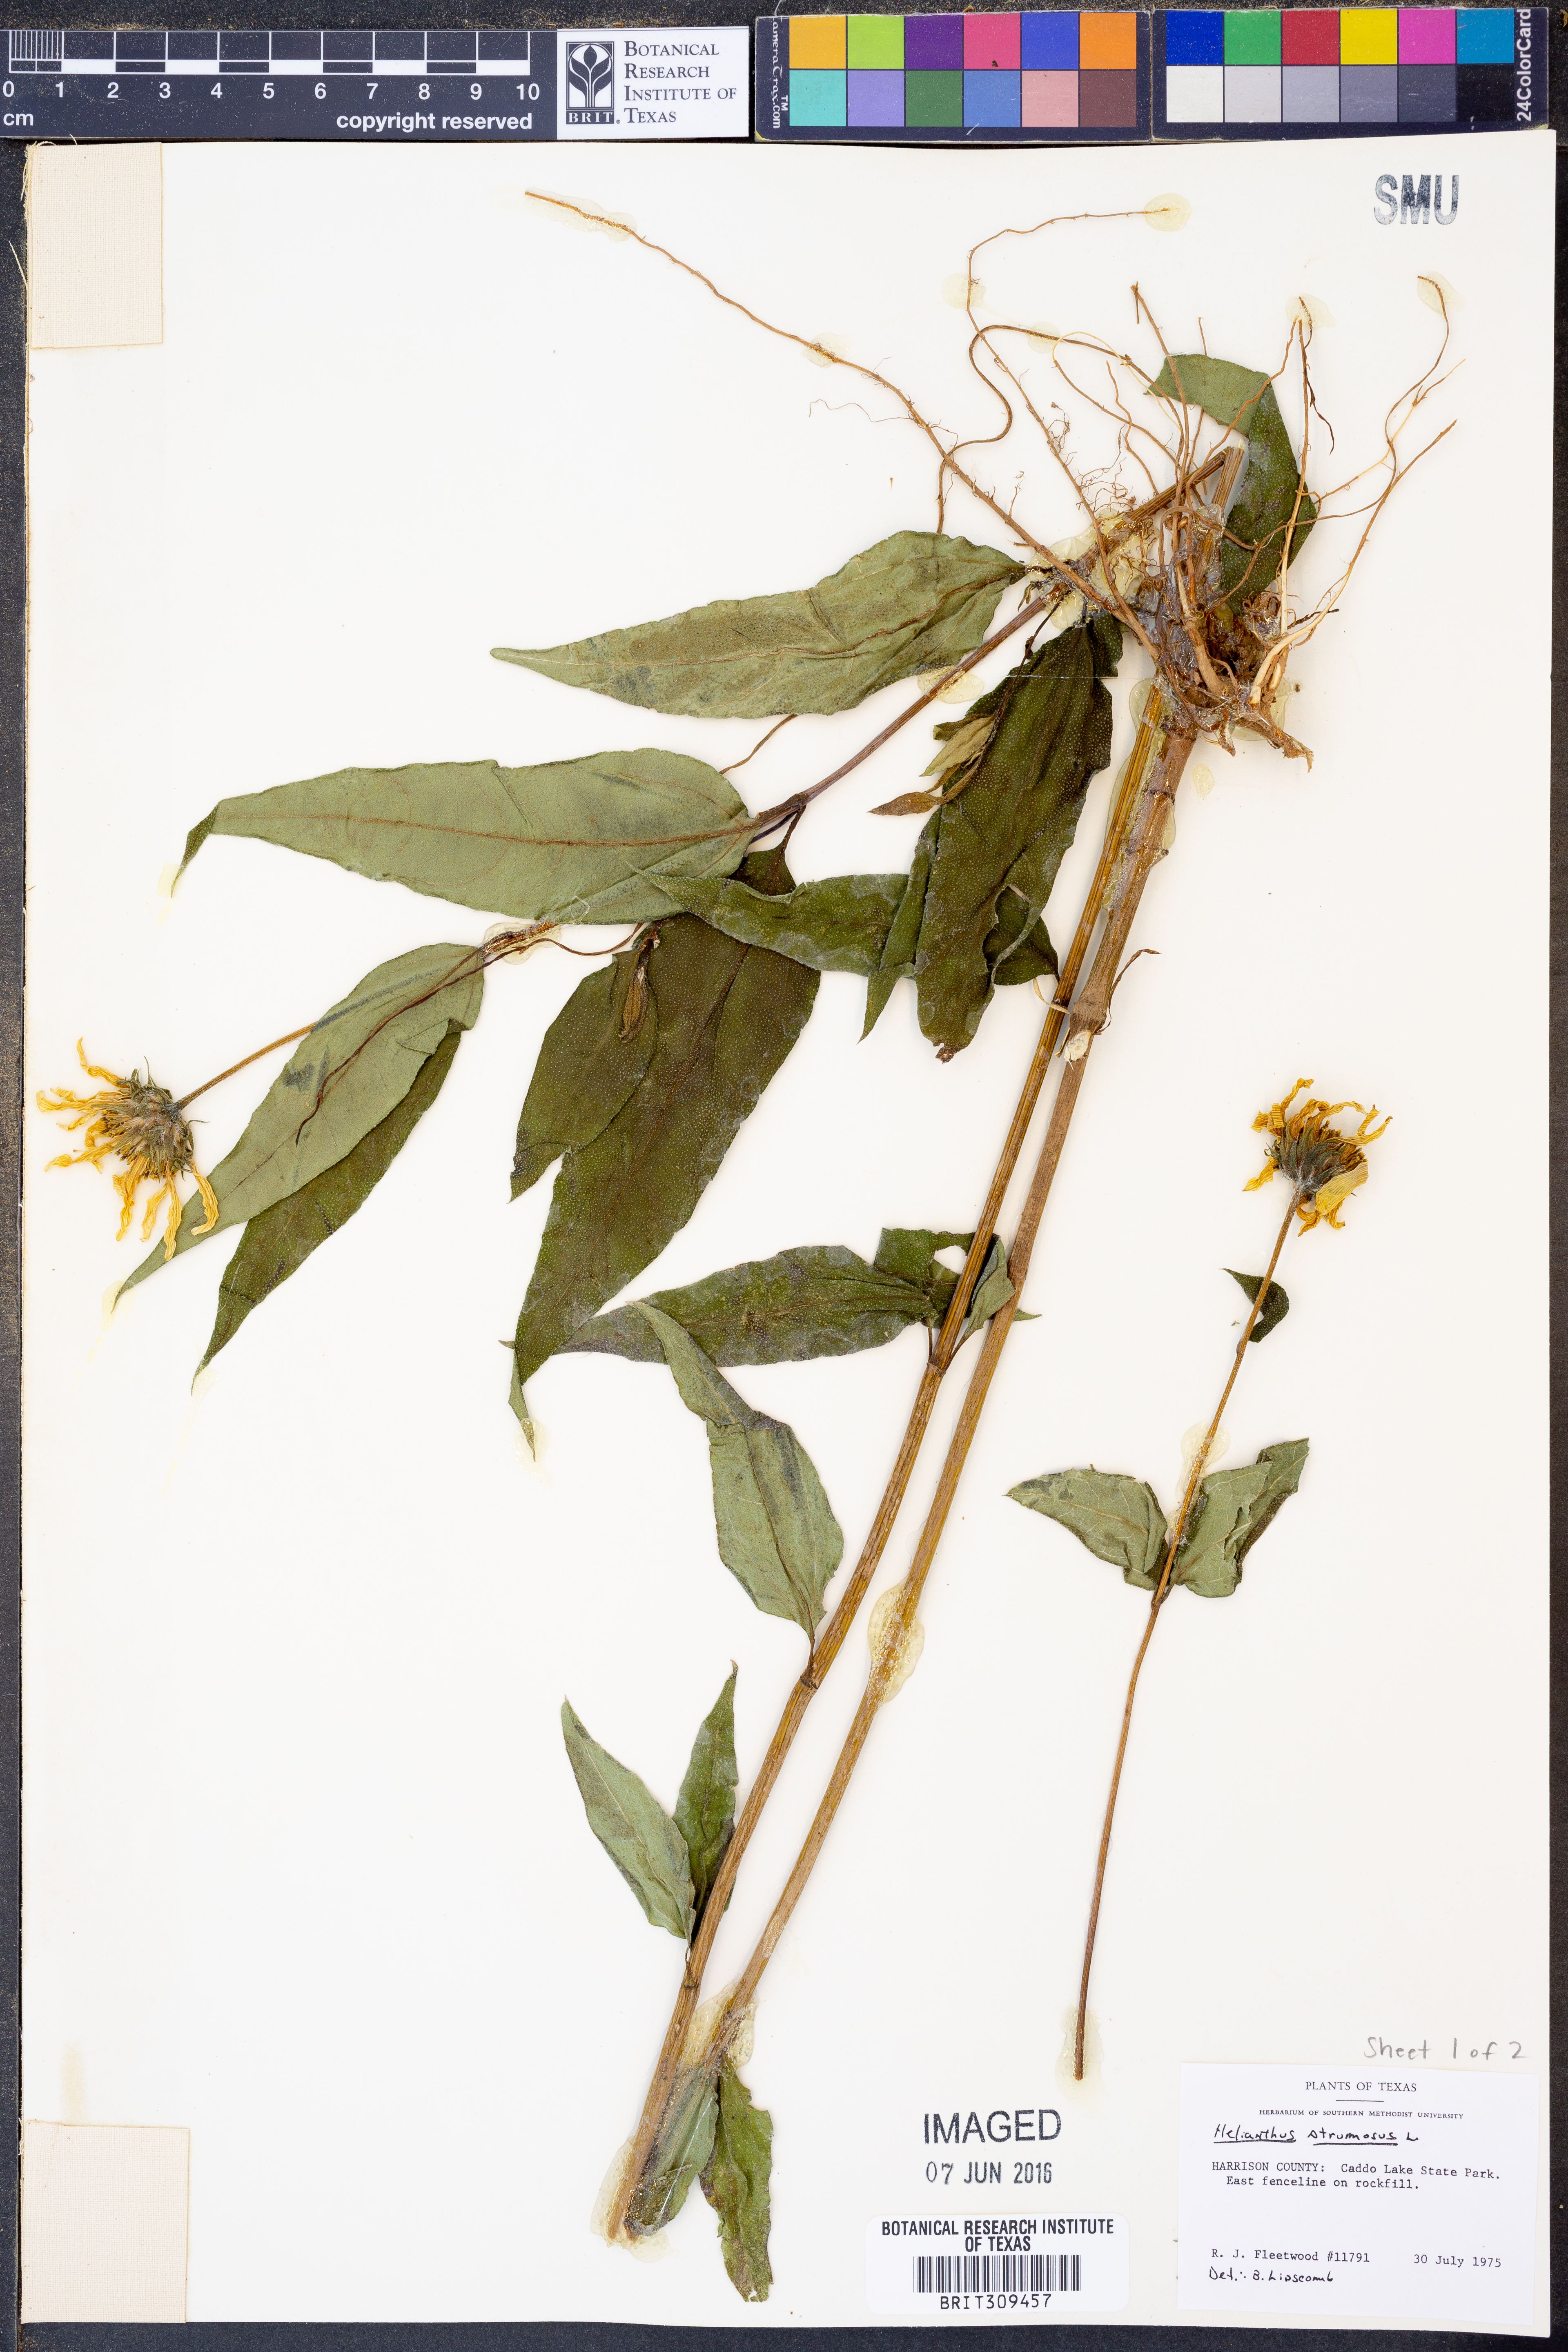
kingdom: Plantae
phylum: Tracheophyta
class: Magnoliopsida
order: Asterales
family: Asteraceae
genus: Helianthus
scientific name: Helianthus strumosus
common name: Pale-leaved sunflower
